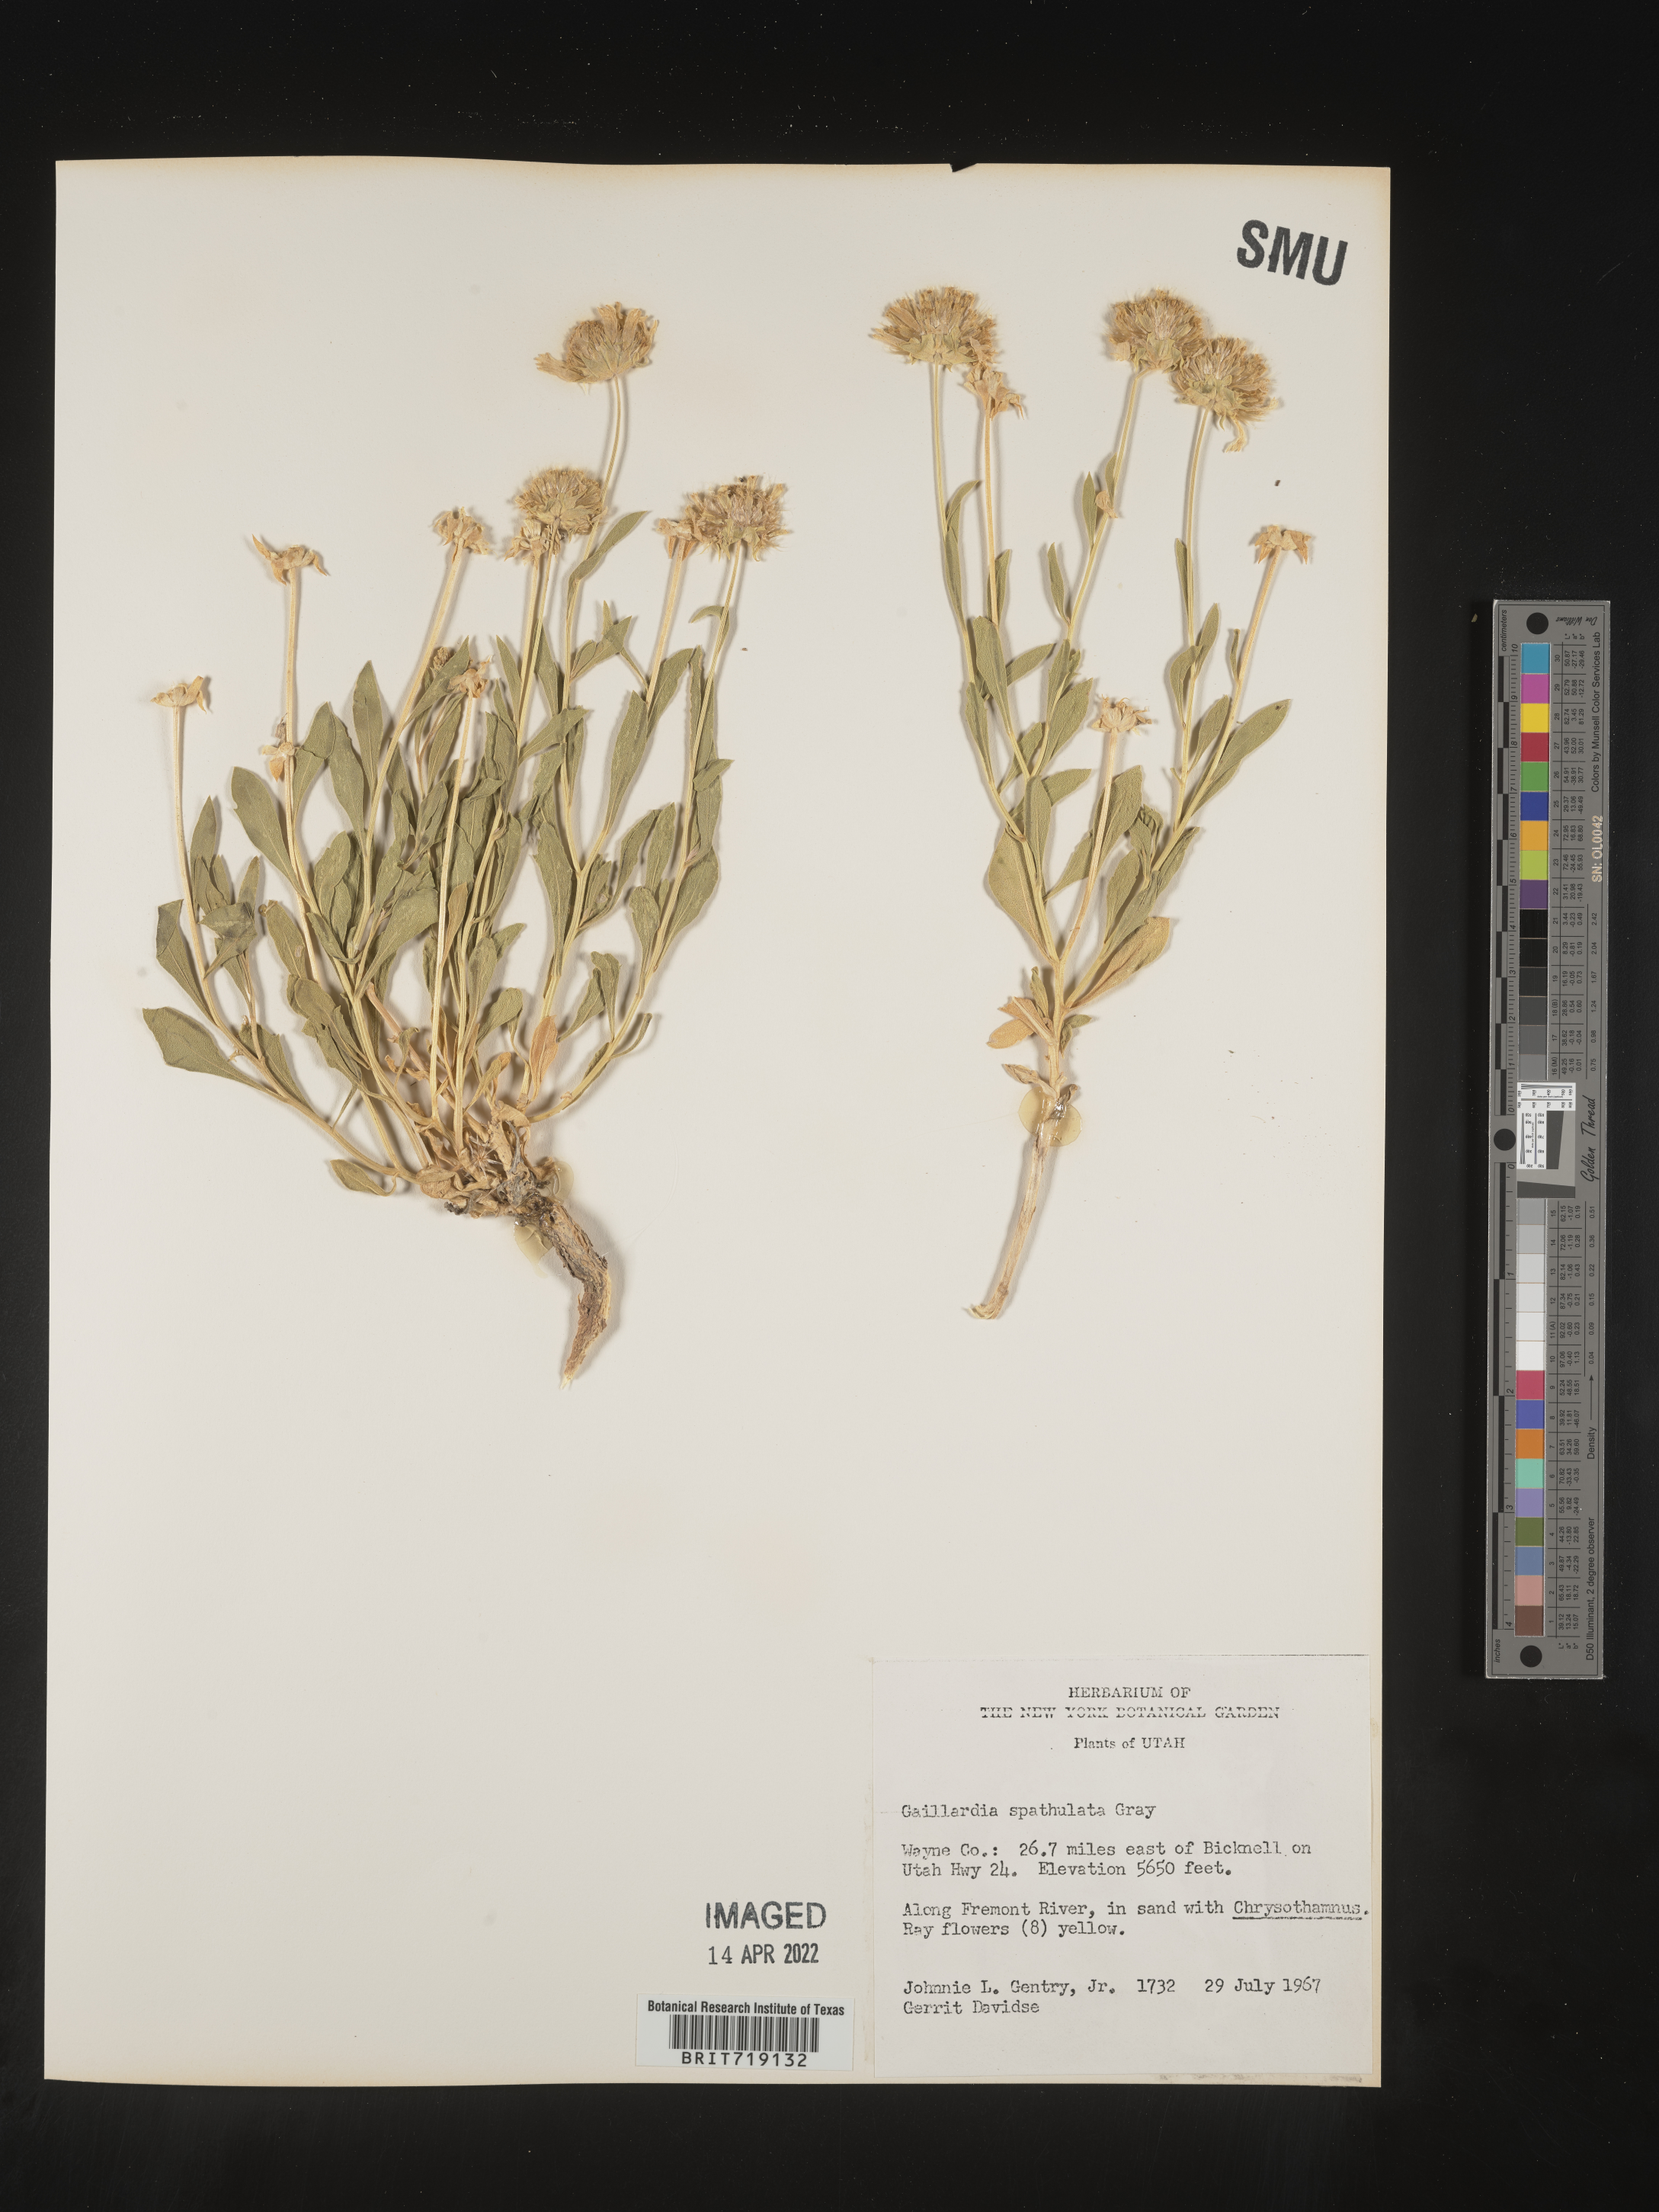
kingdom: Plantae
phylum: Tracheophyta
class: Magnoliopsida
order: Asterales
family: Asteraceae
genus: Gaillardia
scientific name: Gaillardia
